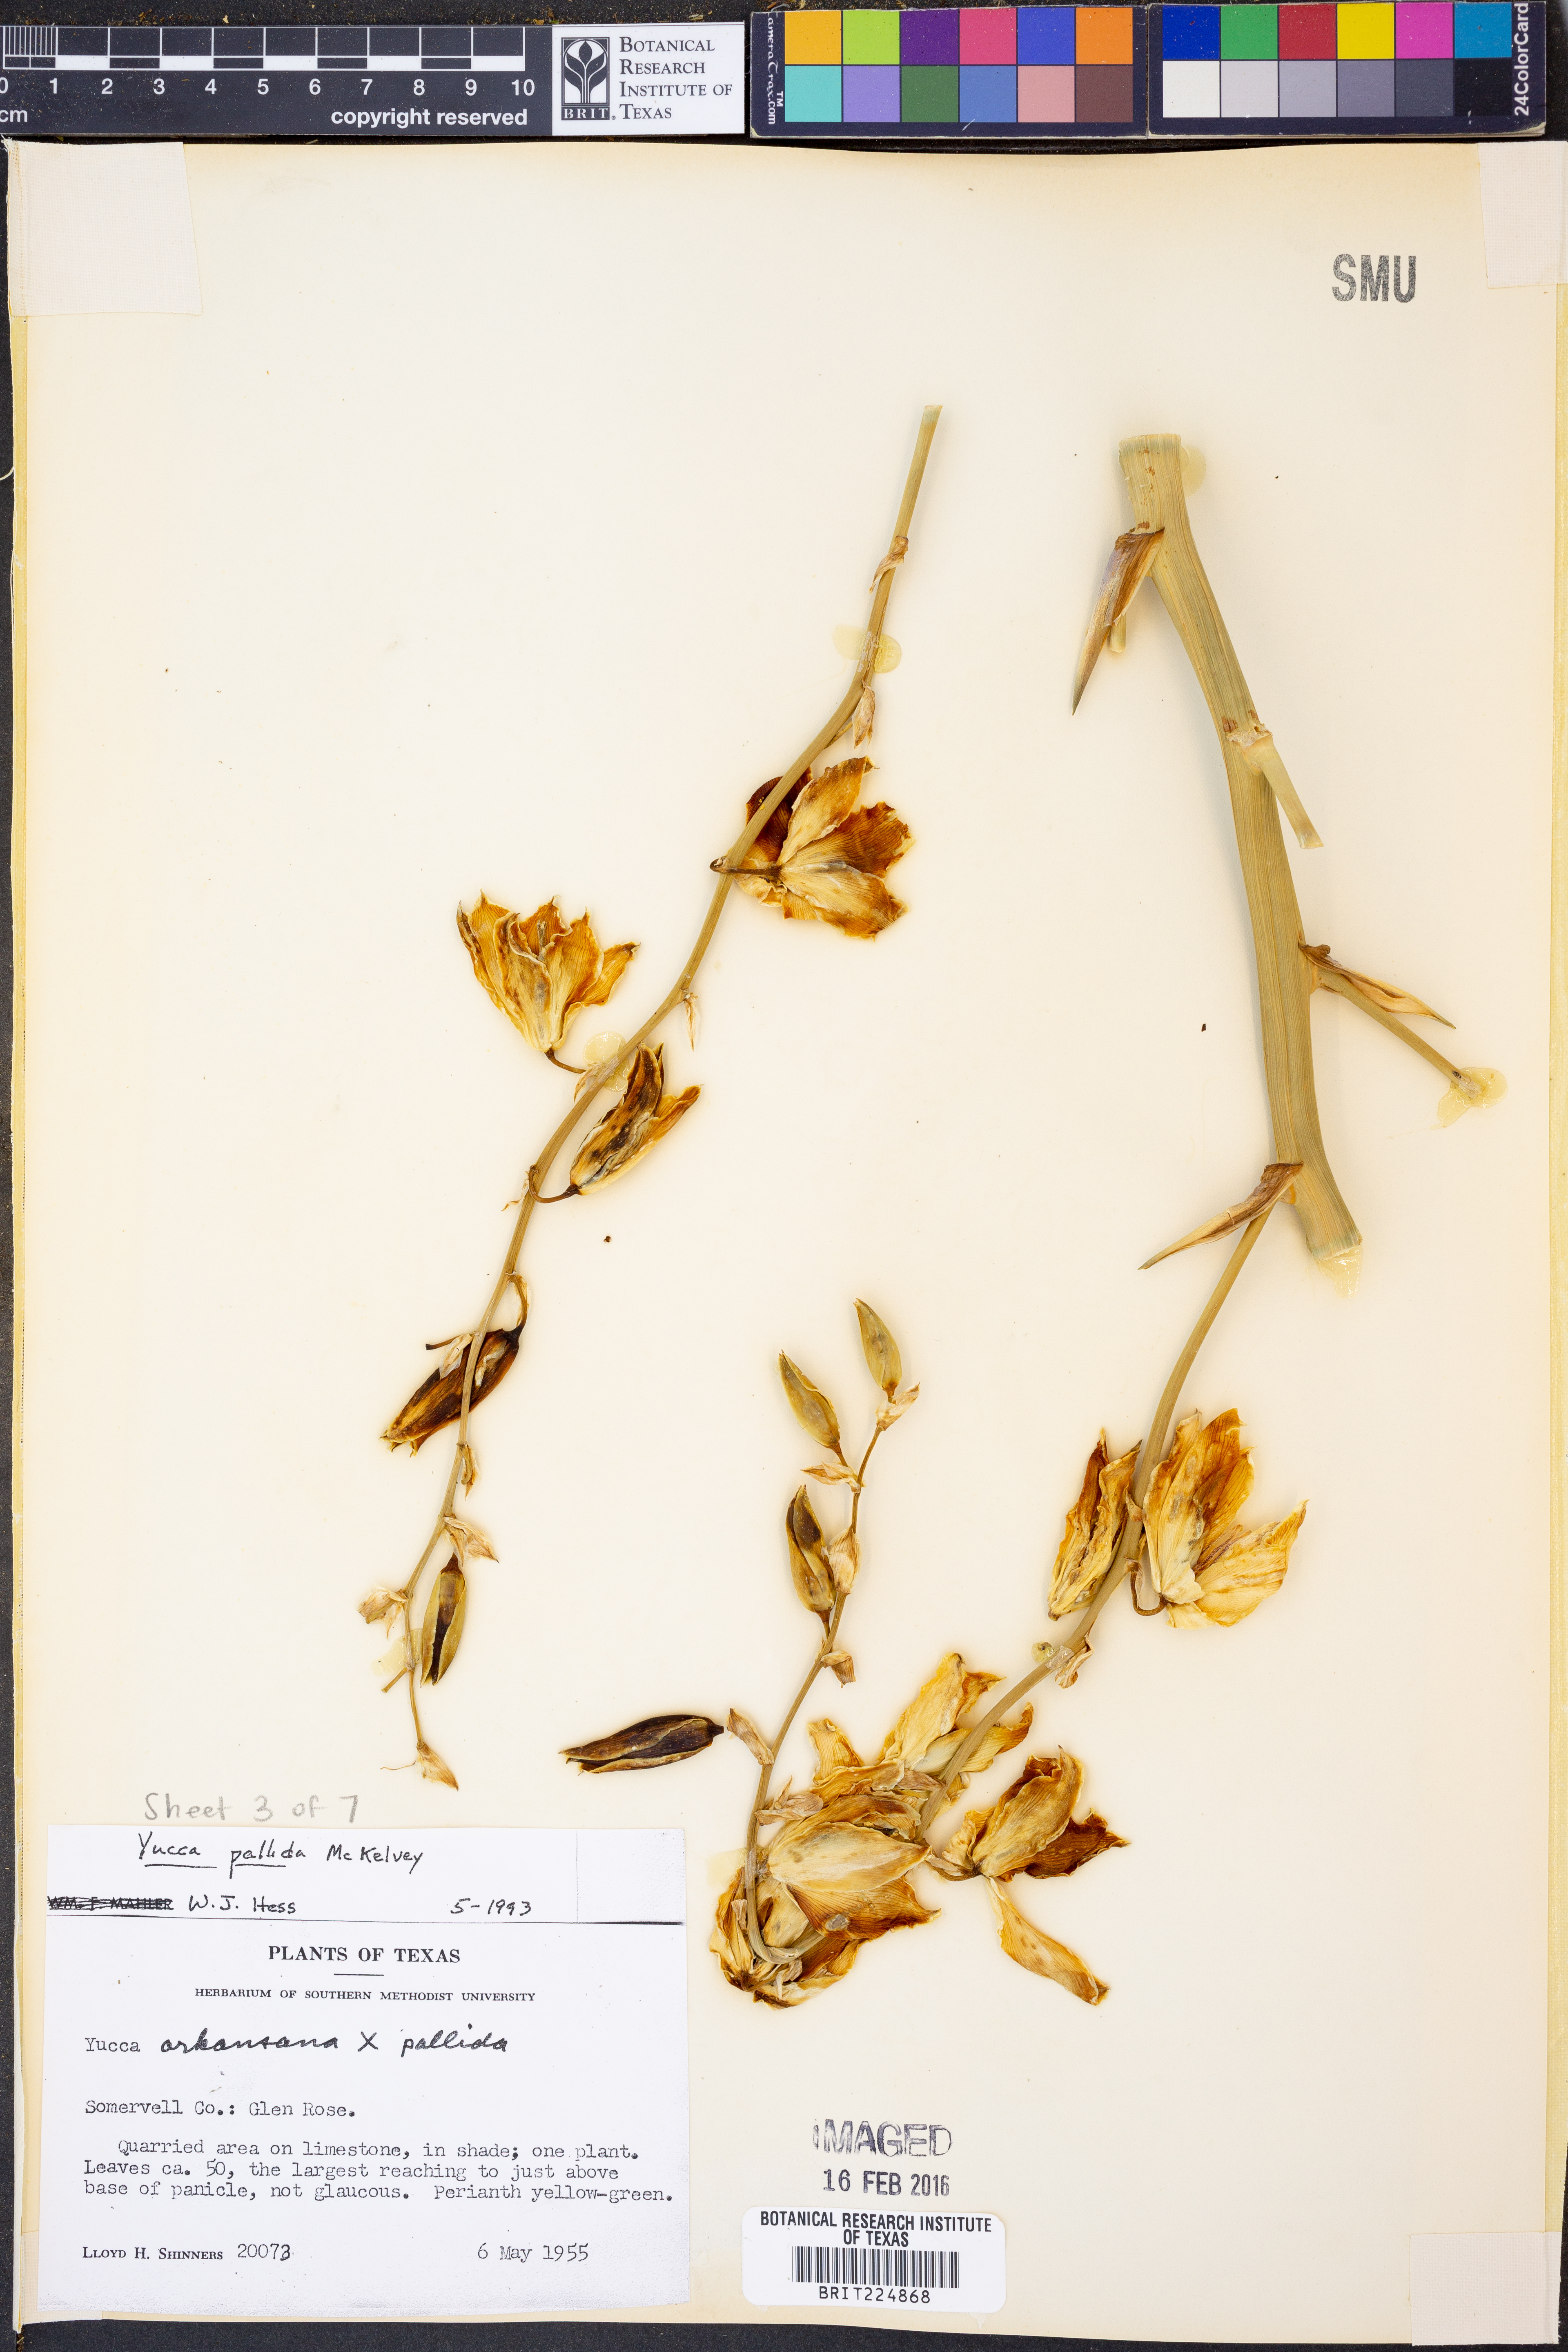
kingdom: Plantae
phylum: Tracheophyta
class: Liliopsida
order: Asparagales
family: Asparagaceae
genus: Yucca
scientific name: Yucca pallida
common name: Pale leaf yucca
